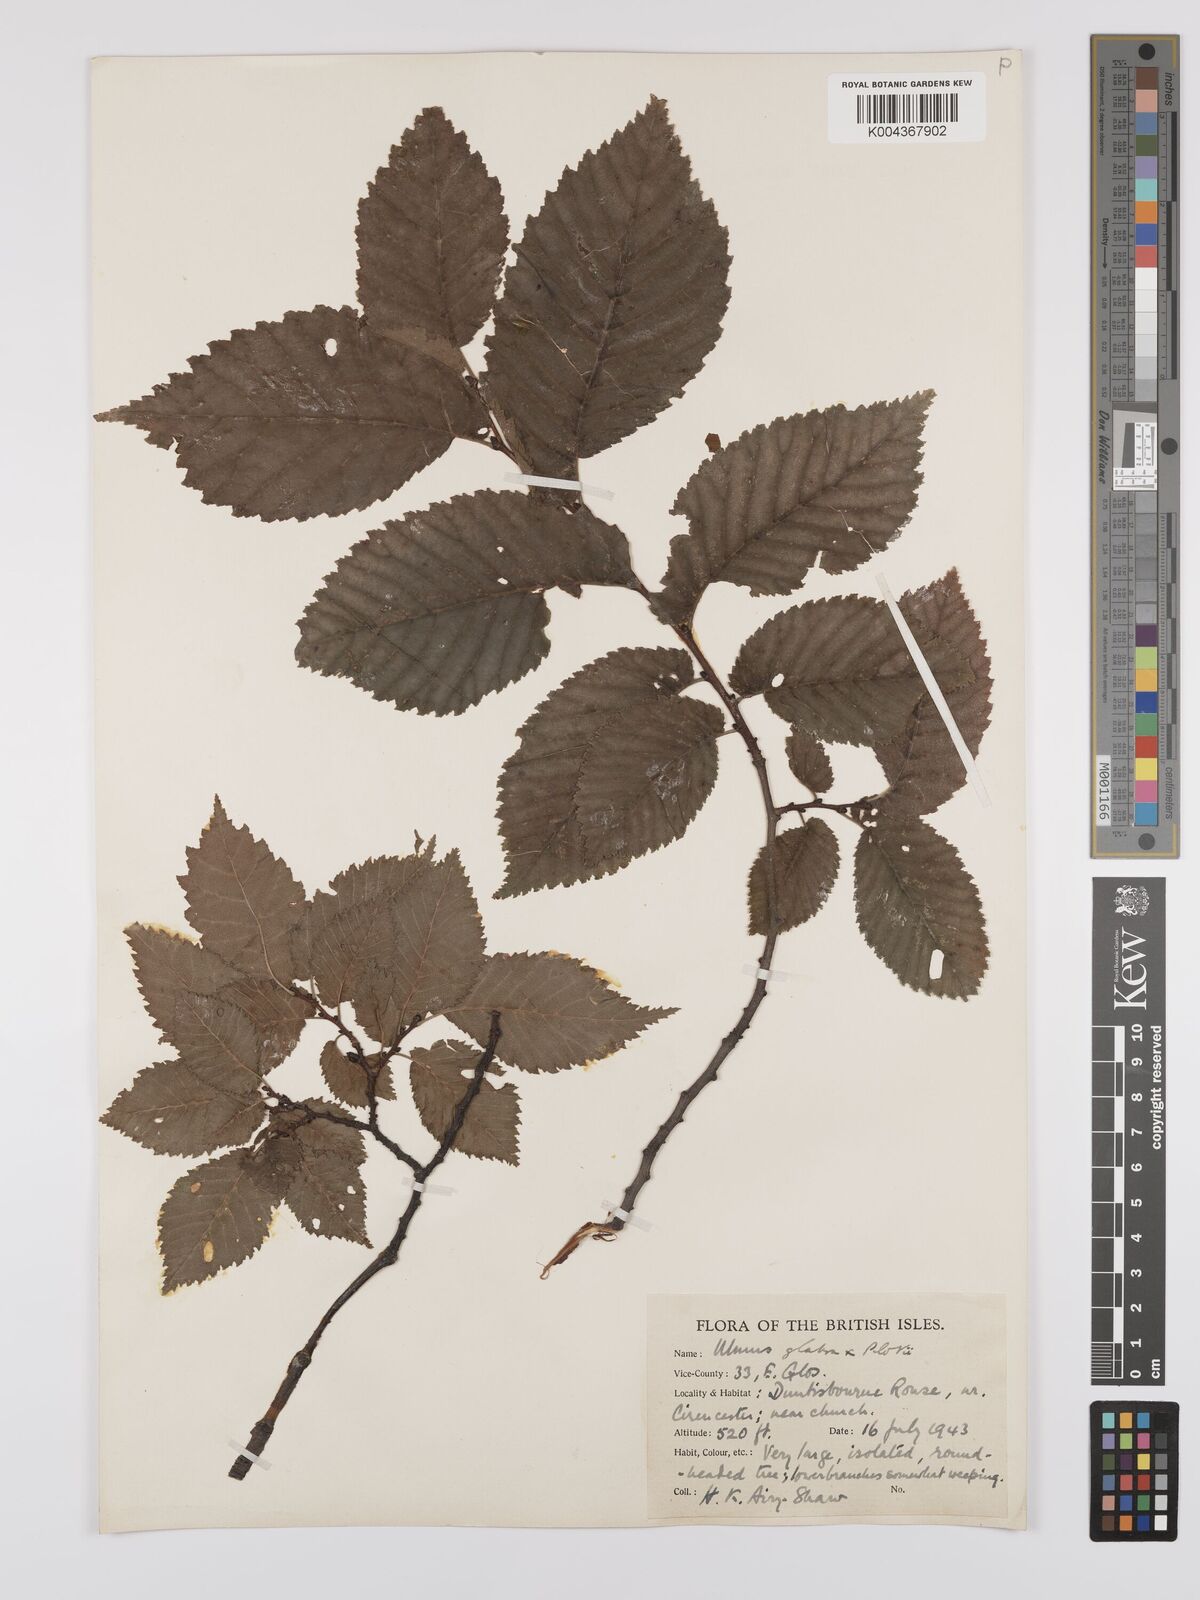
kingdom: Plantae
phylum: Tracheophyta
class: Magnoliopsida
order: Rosales
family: Ulmaceae
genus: Ulmus
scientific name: Ulmus glabra
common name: Wych elm
